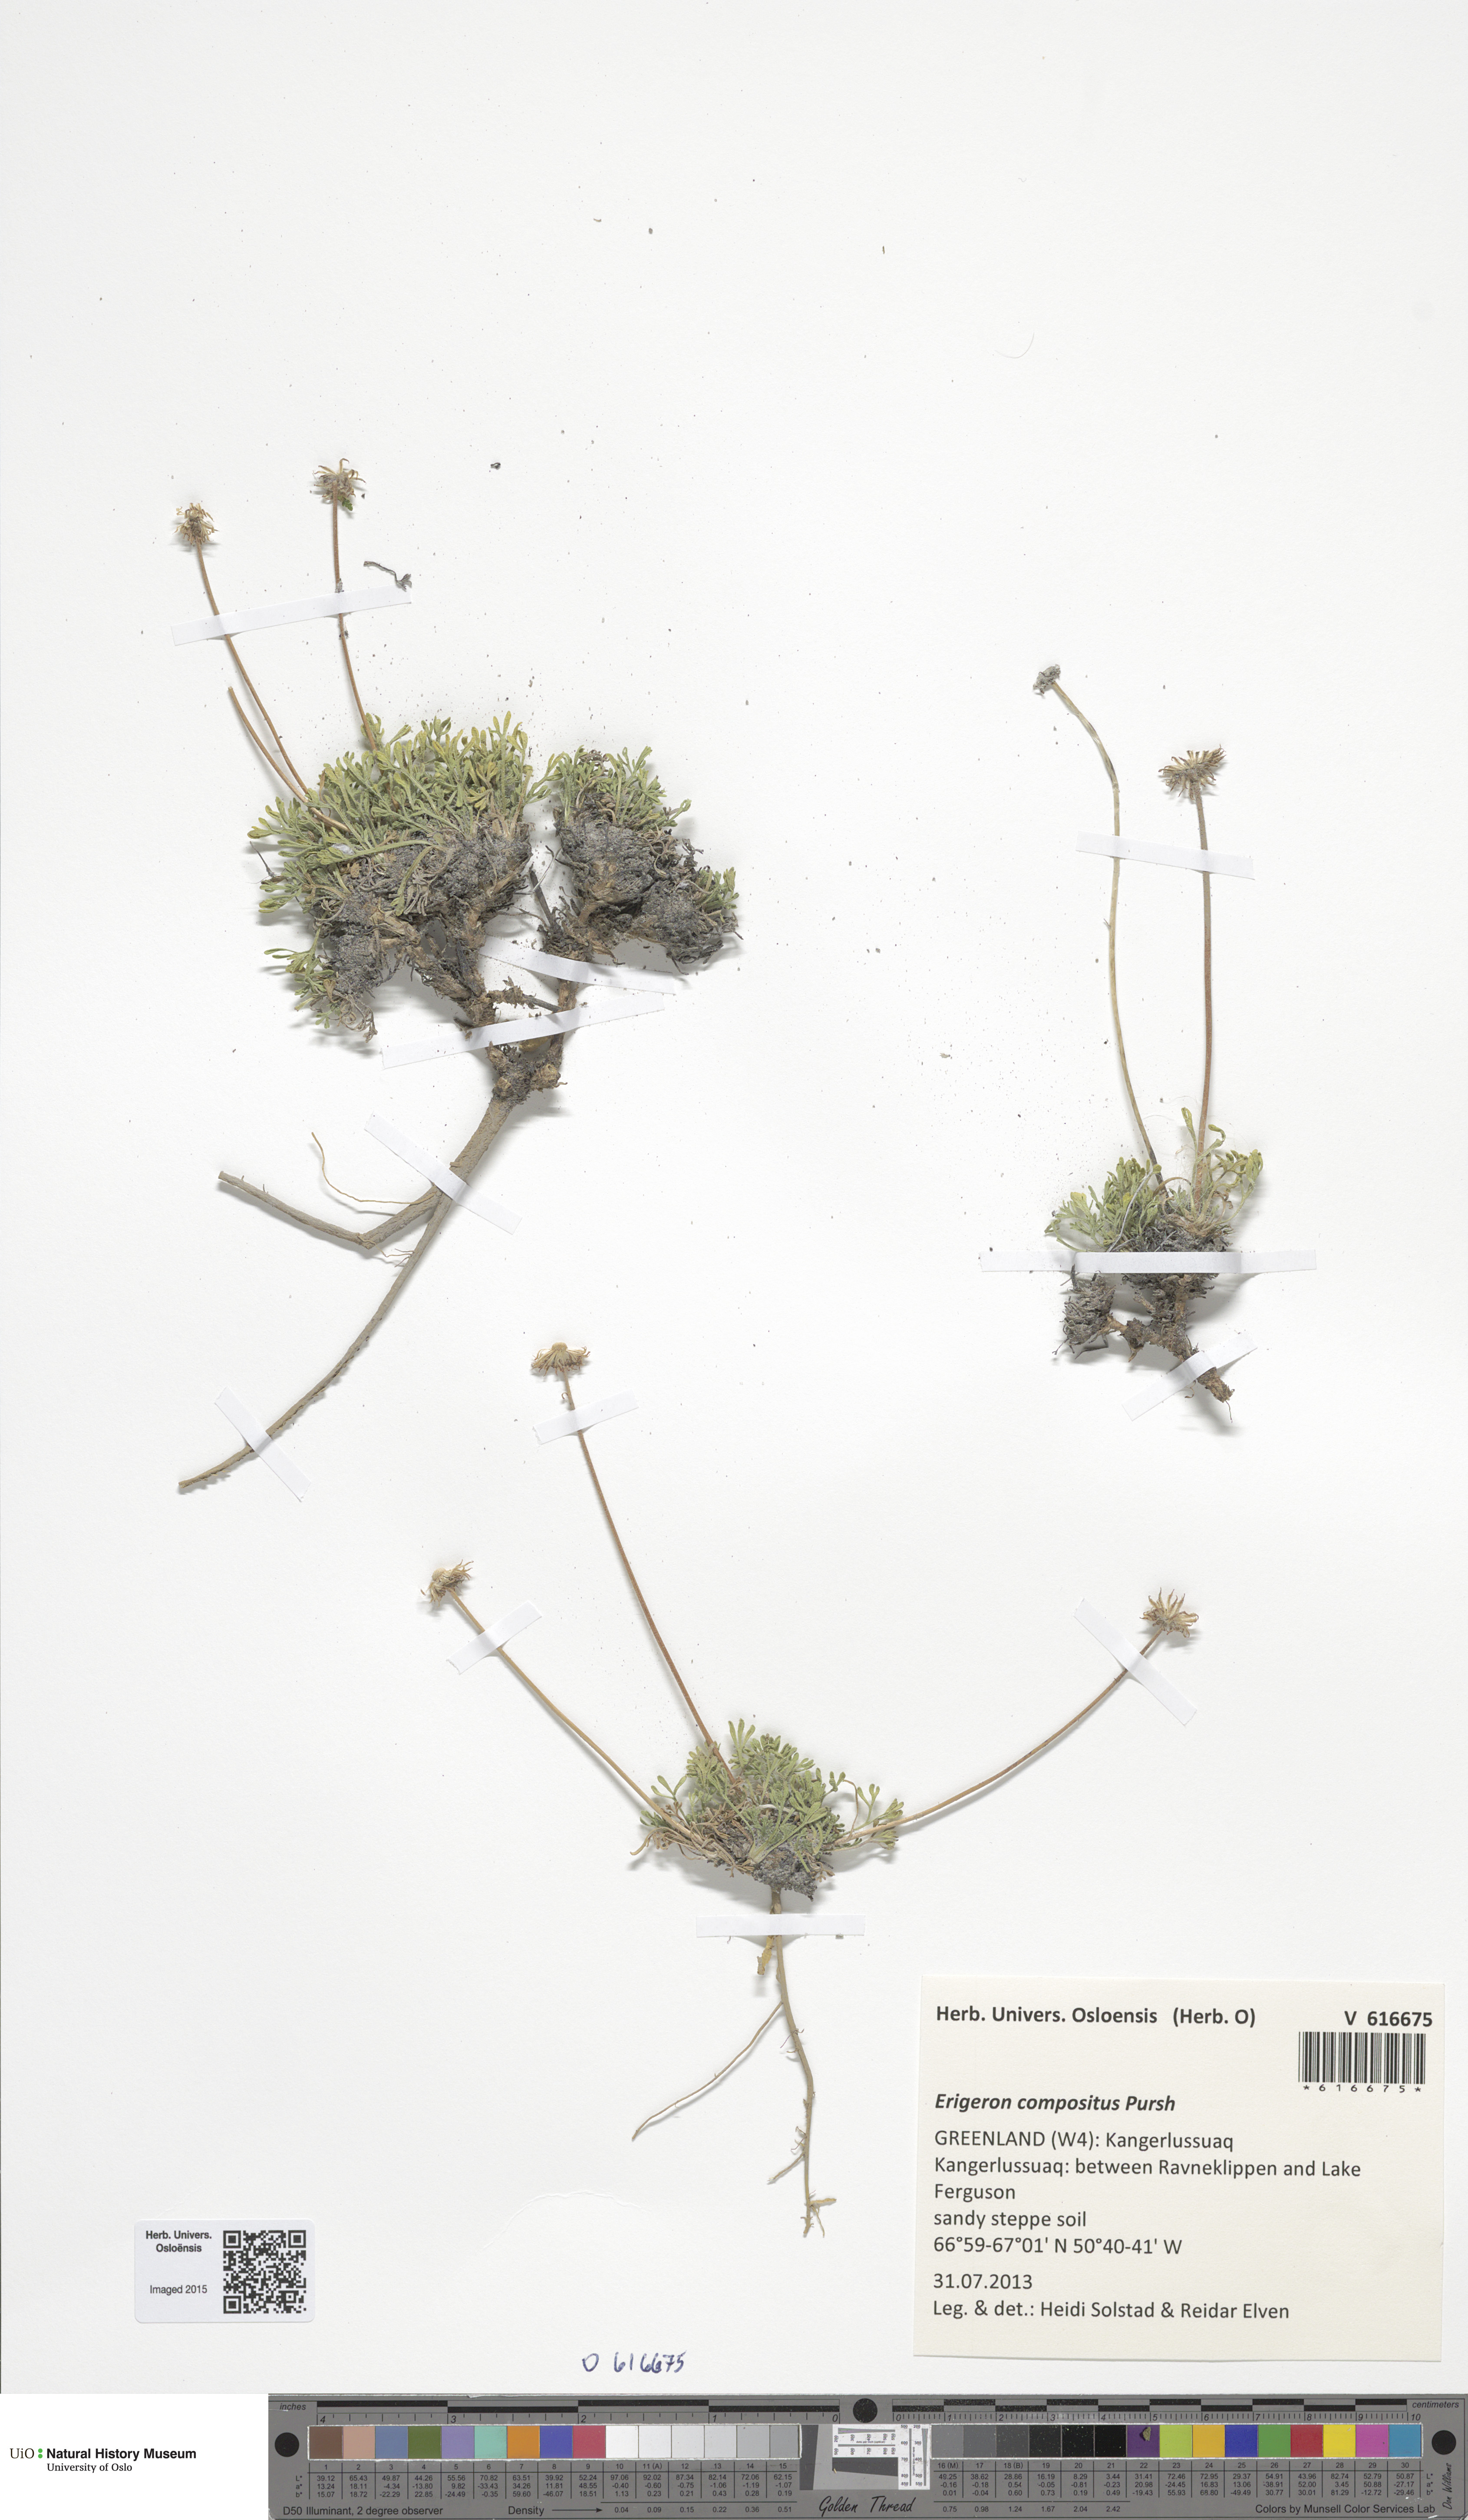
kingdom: Plantae
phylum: Tracheophyta
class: Magnoliopsida
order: Asterales
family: Asteraceae
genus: Erigeron
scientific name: Erigeron compositus
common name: Dwarf mountain fleabane
